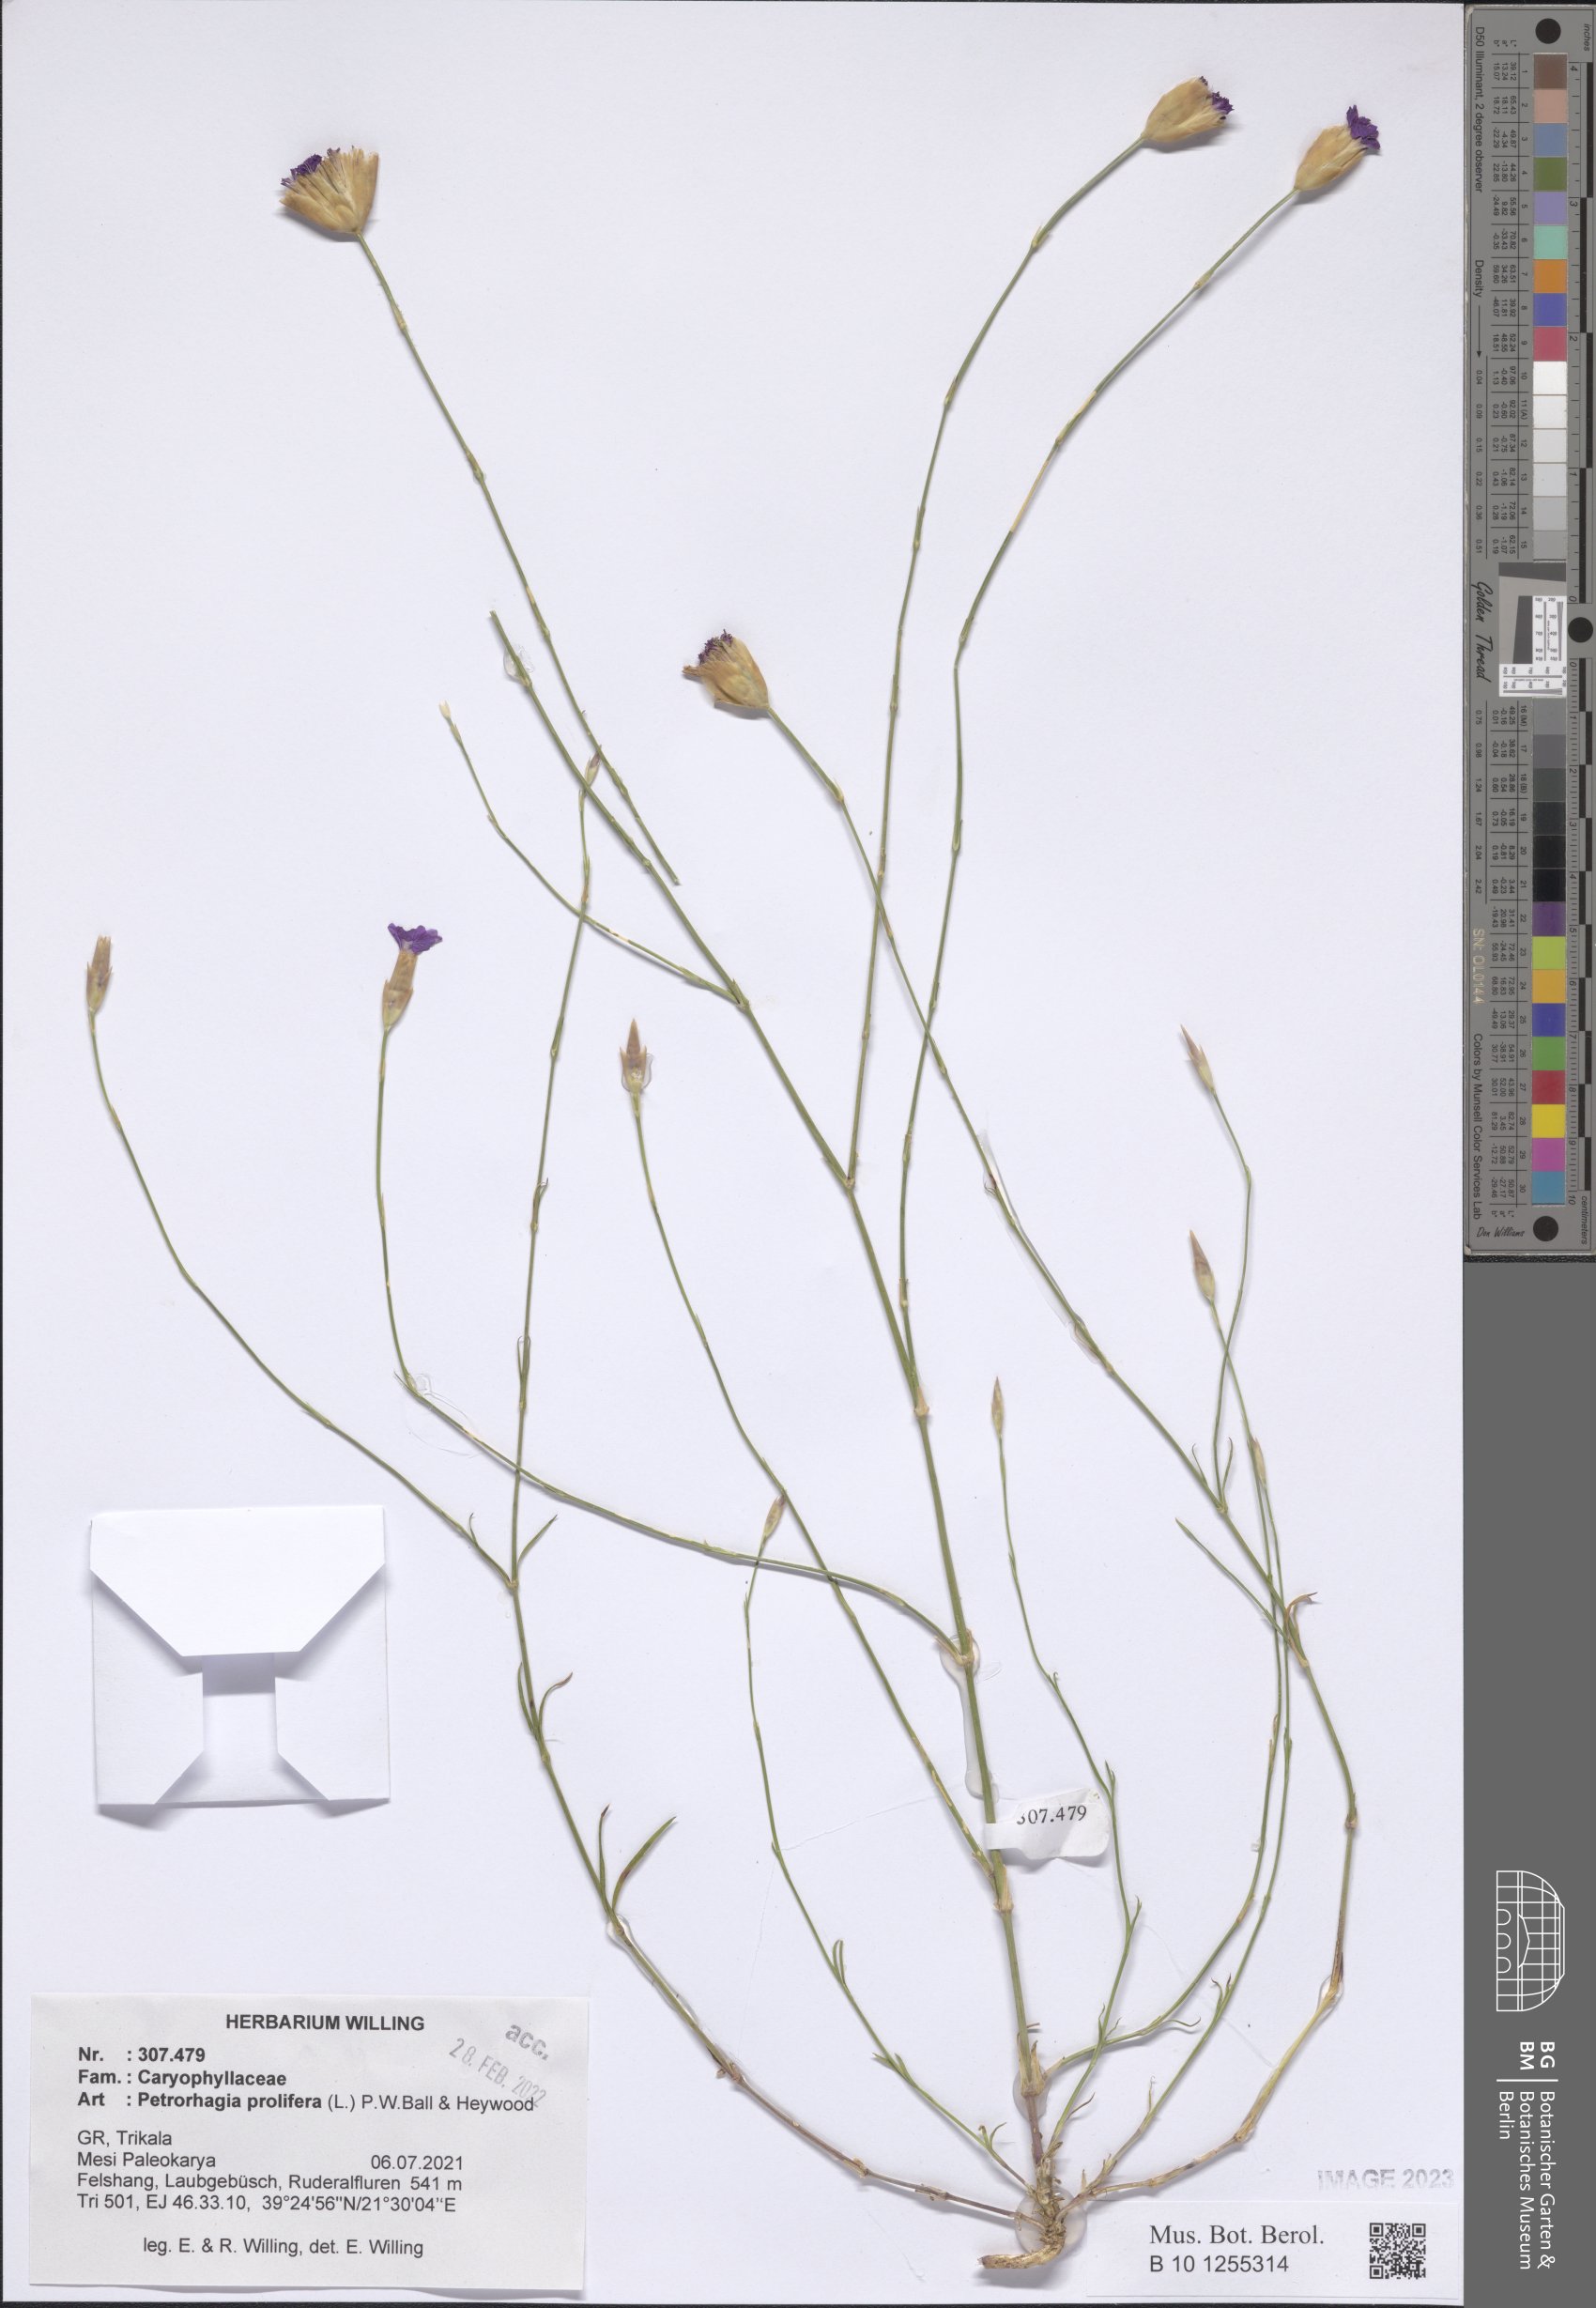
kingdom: Plantae
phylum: Tracheophyta
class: Magnoliopsida
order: Caryophyllales
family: Caryophyllaceae
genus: Petrorhagia
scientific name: Petrorhagia prolifera
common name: Proliferous pink
